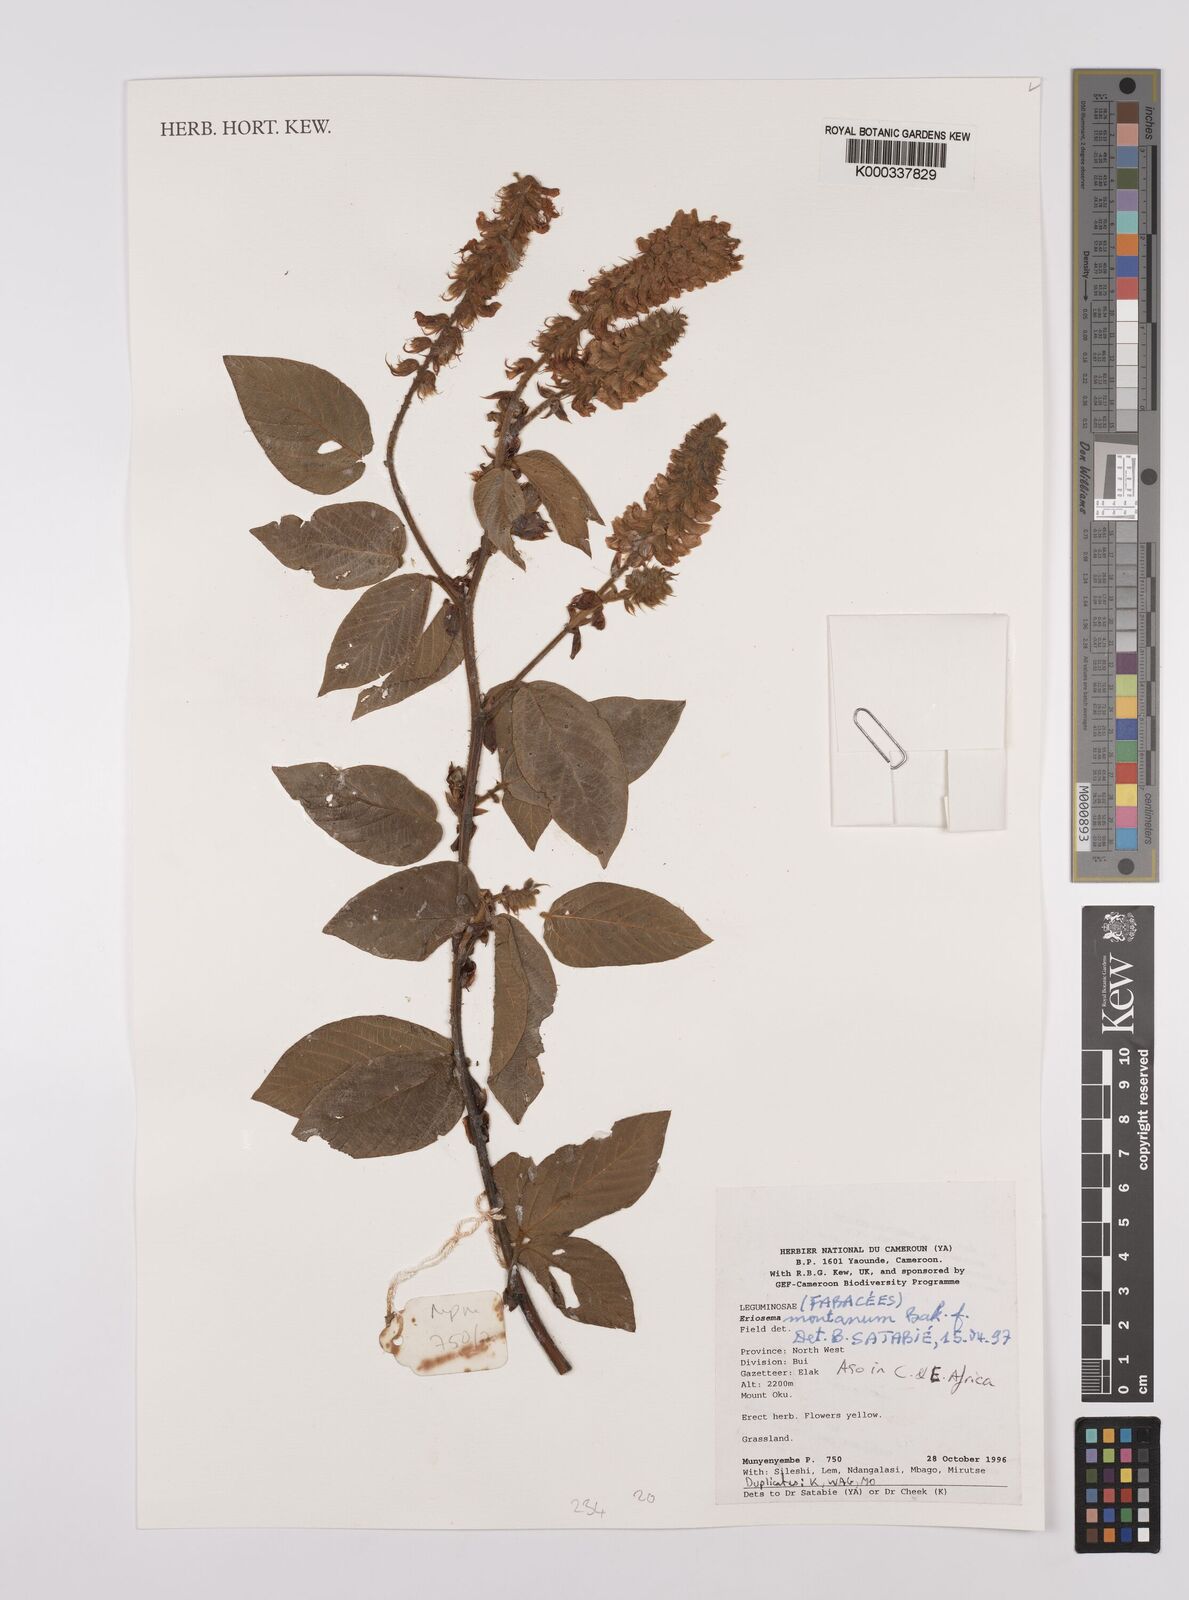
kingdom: Plantae
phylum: Tracheophyta
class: Magnoliopsida
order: Fabales
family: Fabaceae
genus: Eriosema
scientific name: Eriosema montanum
